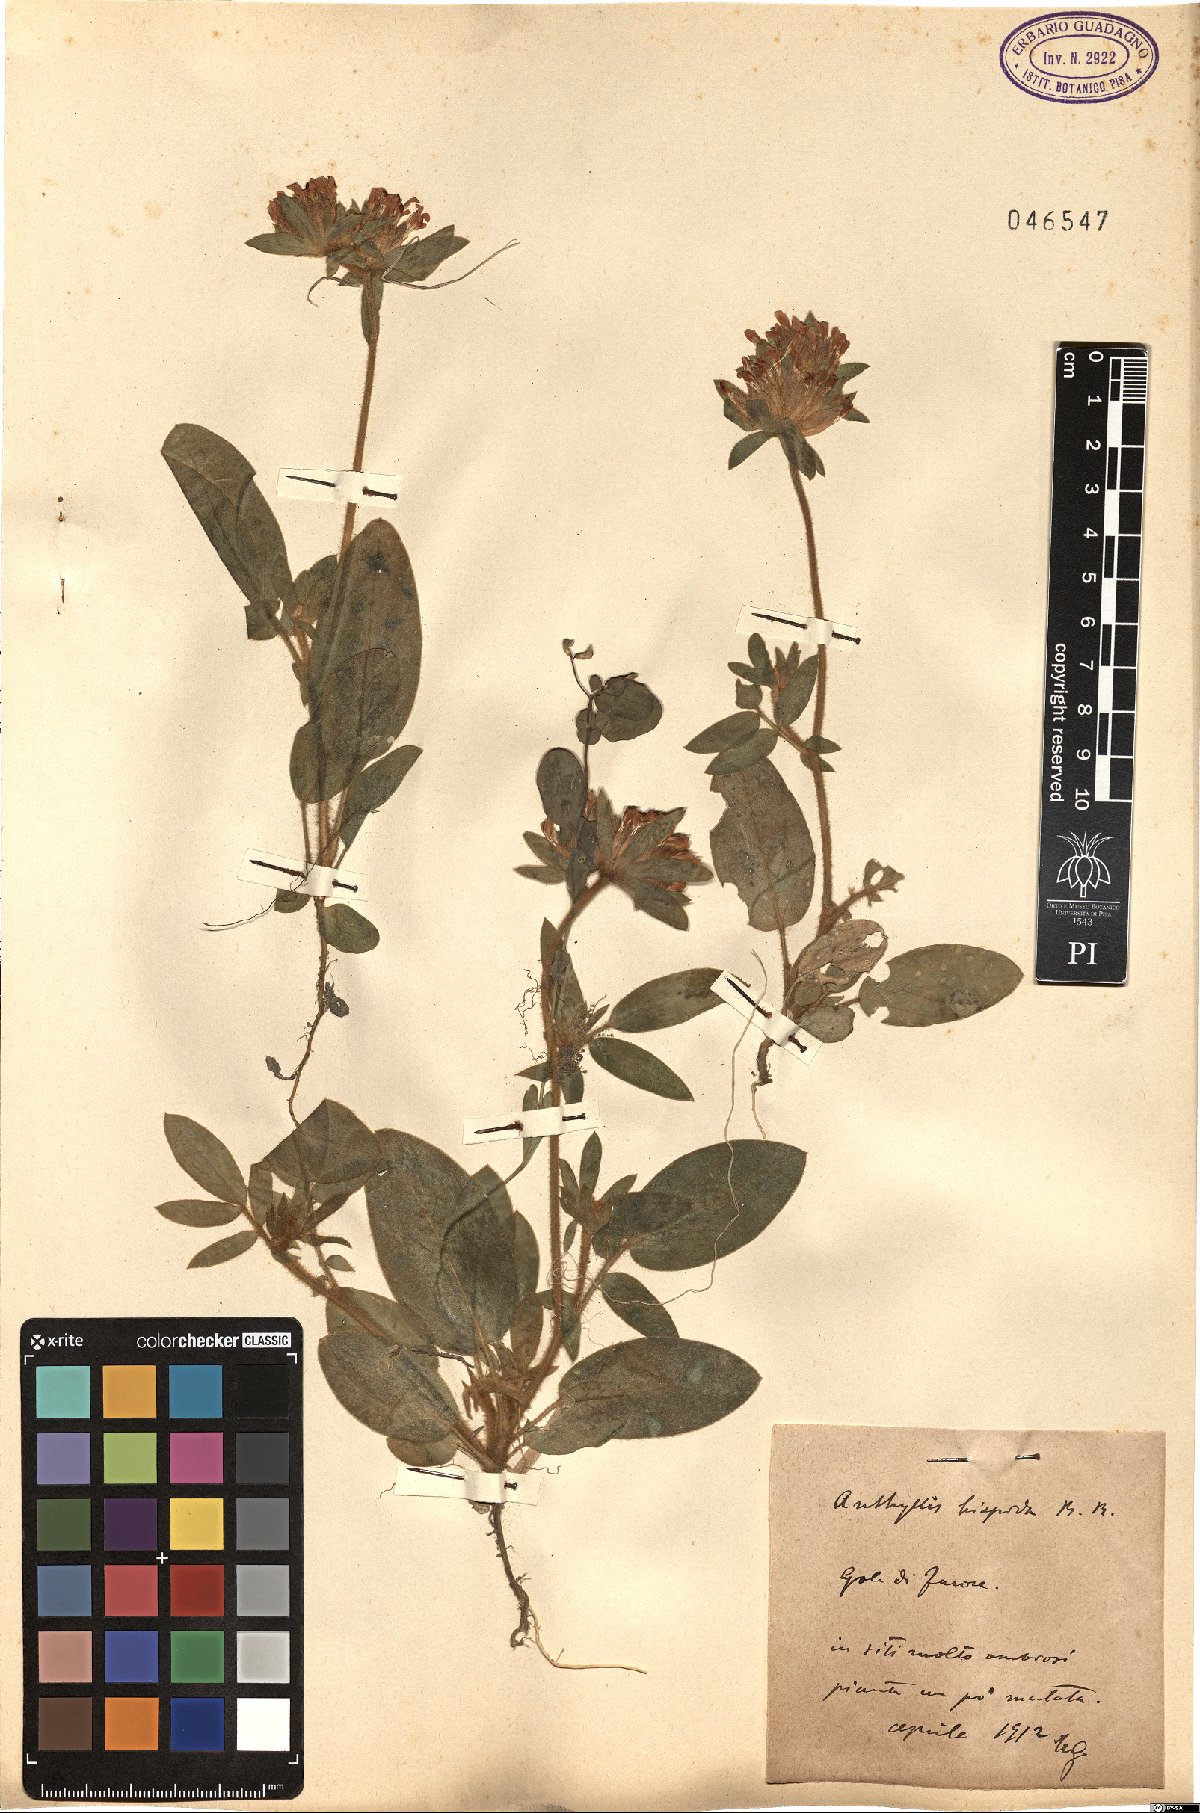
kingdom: Plantae
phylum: Tracheophyta
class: Magnoliopsida
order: Fabales
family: Fabaceae
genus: Anthyllis
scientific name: Anthyllis vulneraria
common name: Kidney vetch
